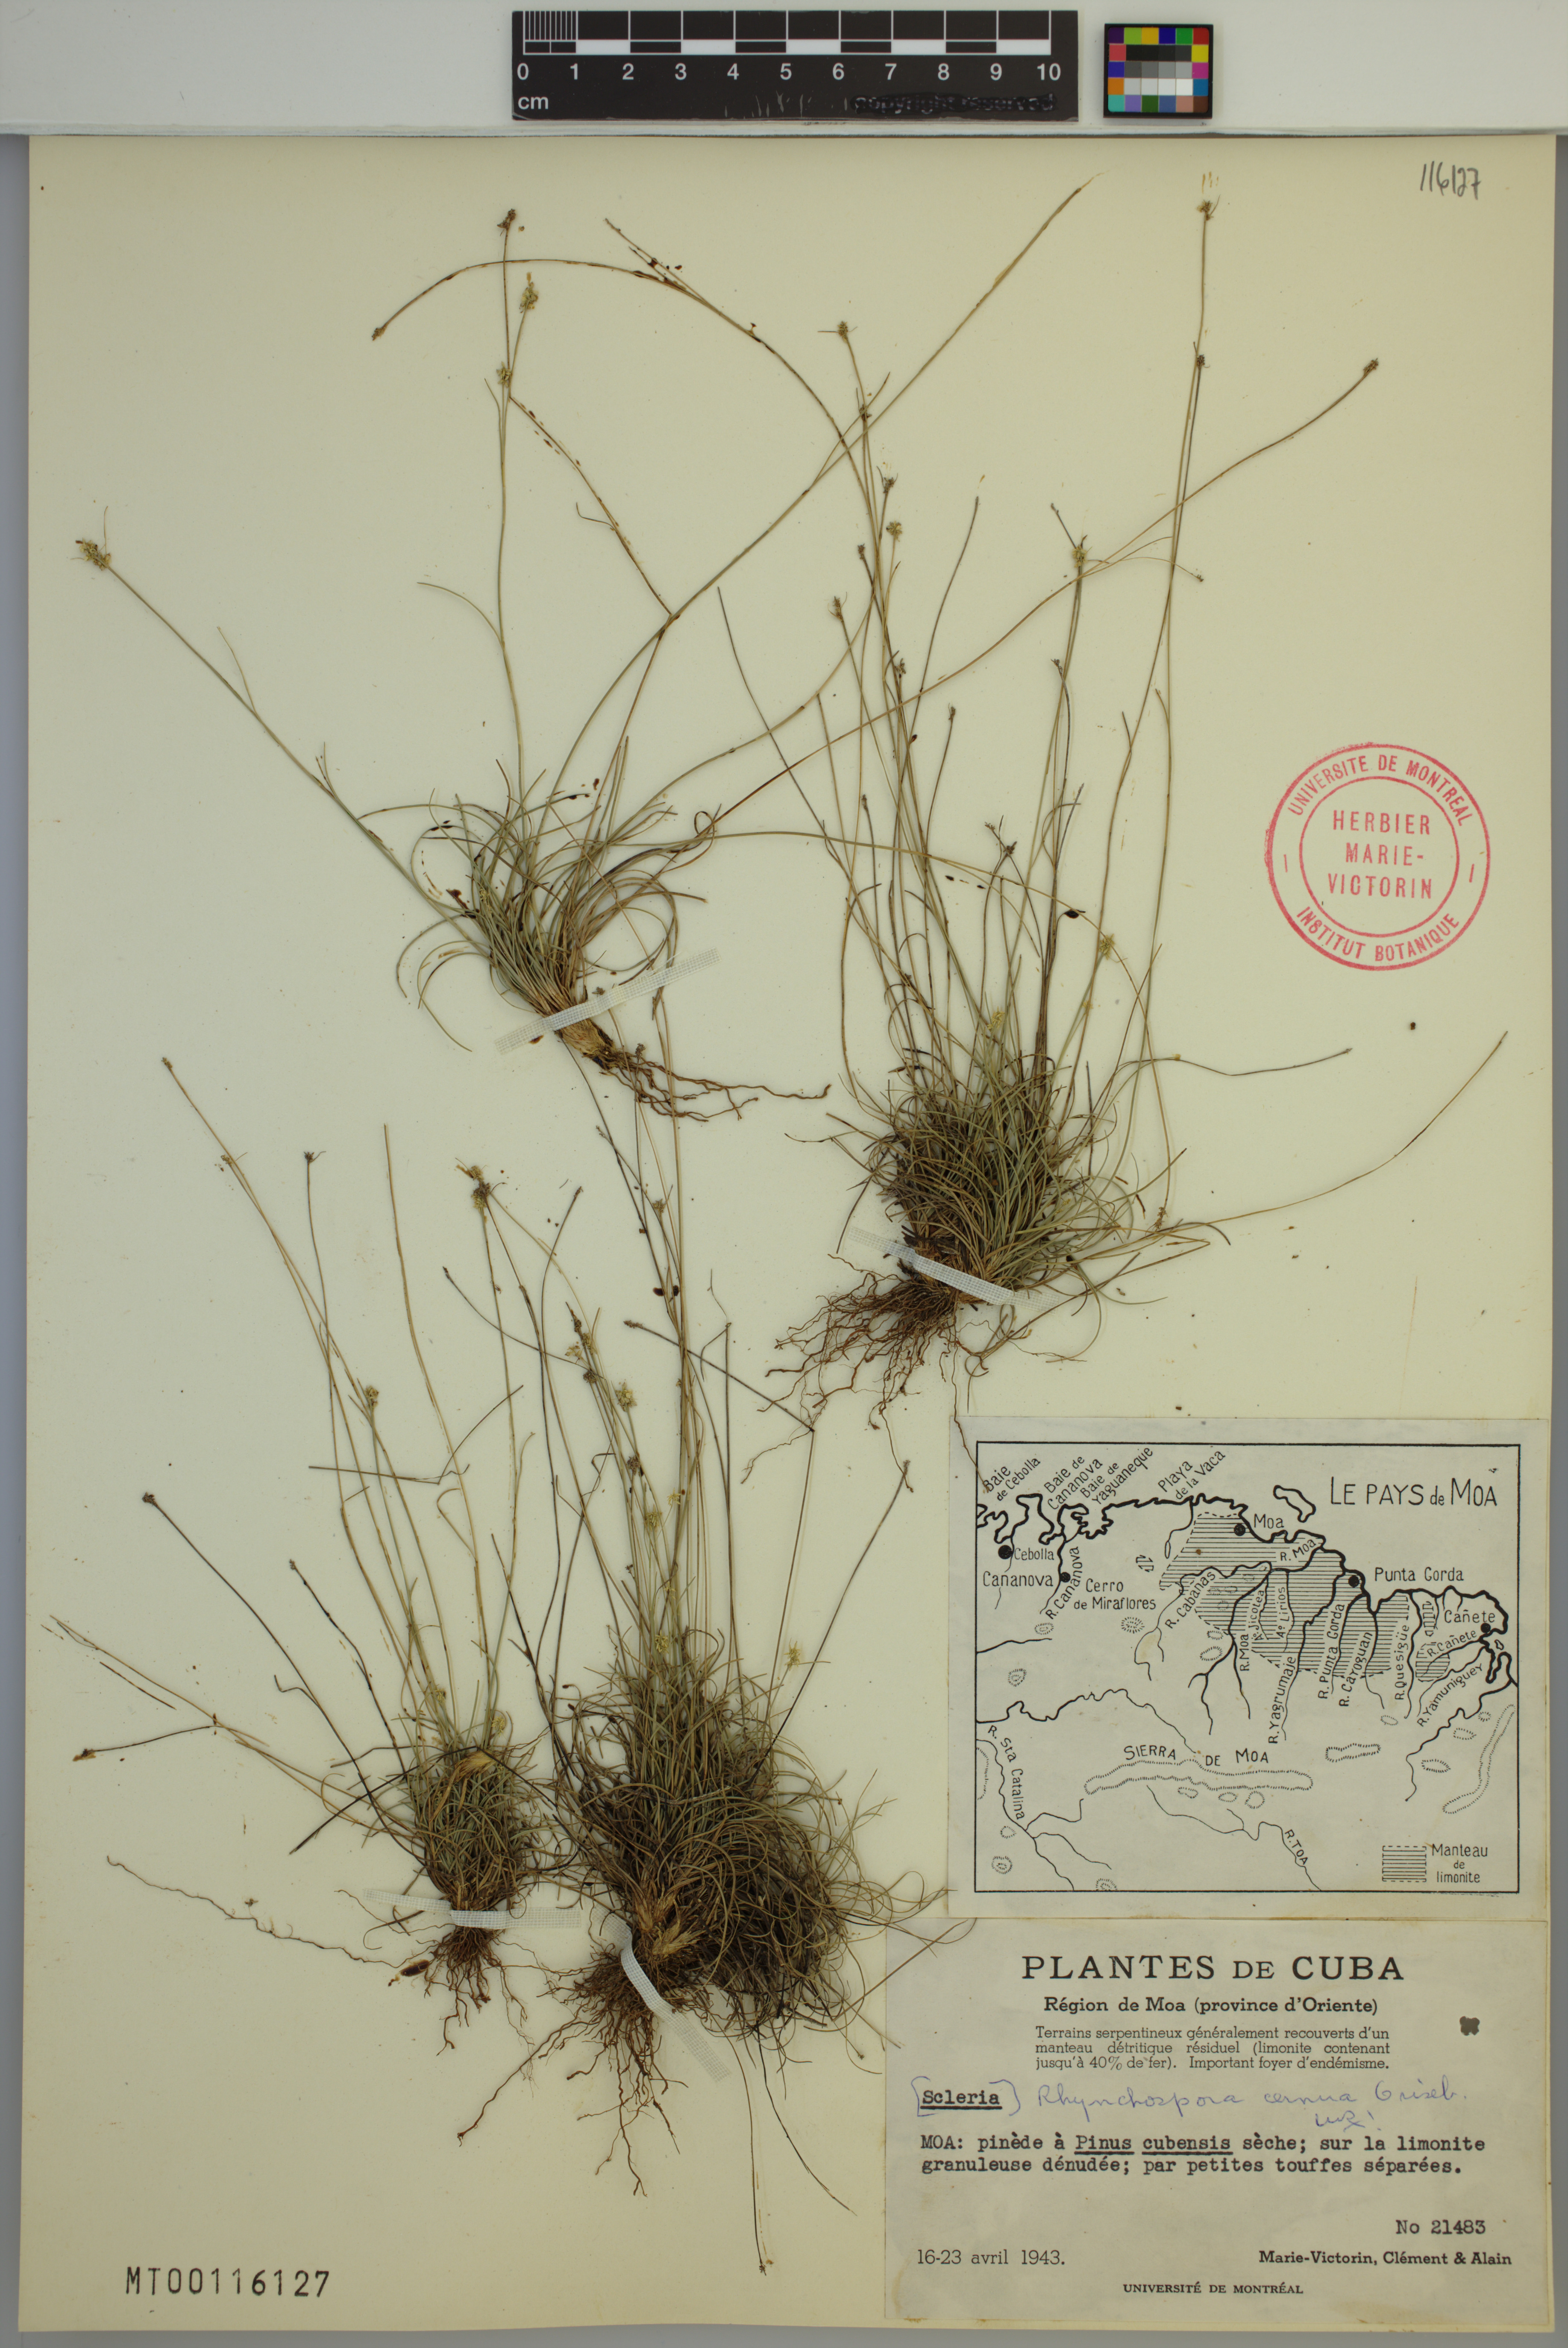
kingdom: Plantae
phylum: Tracheophyta
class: Liliopsida
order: Poales
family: Cyperaceae
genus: Rhynchospora
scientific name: Rhynchospora cernua
